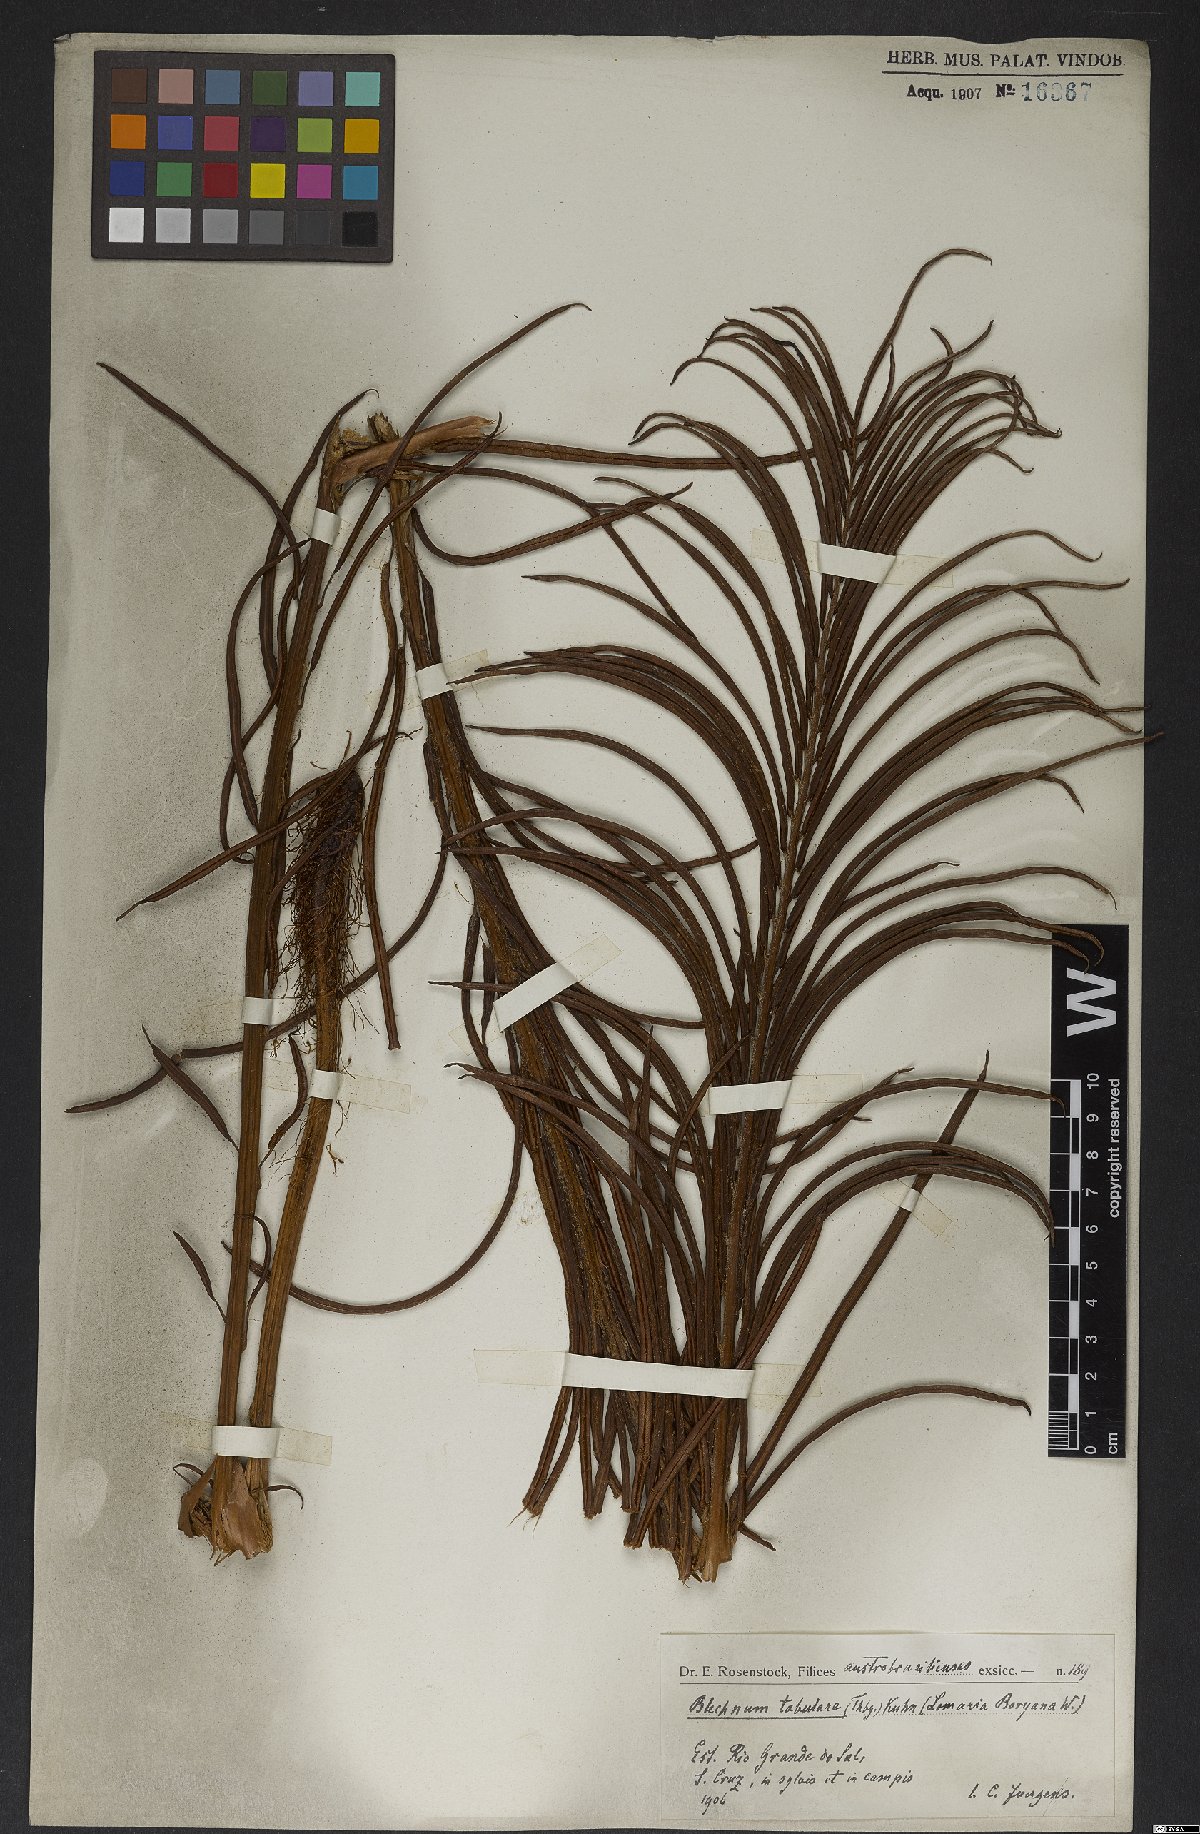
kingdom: Plantae
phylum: Tracheophyta
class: Polypodiopsida
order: Polypodiales
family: Blechnaceae
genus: Lomariocycas
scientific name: Lomariocycas tabularis
